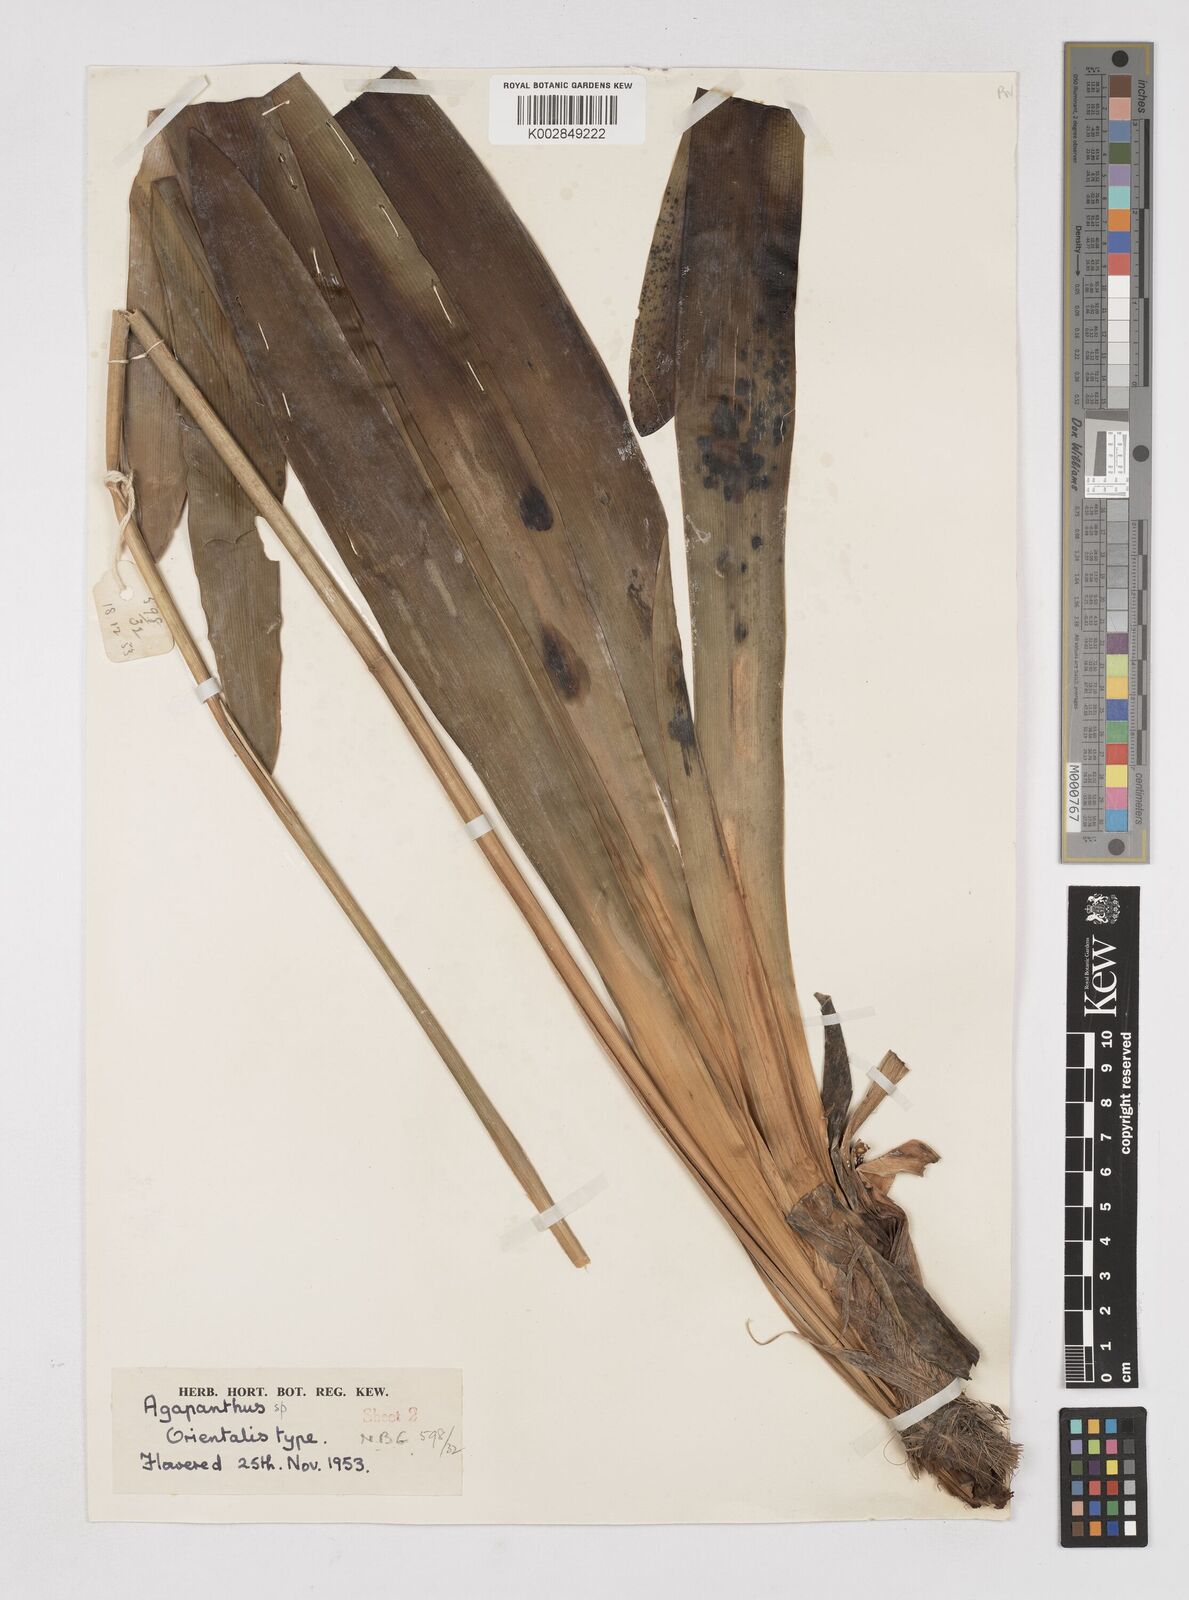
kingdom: Plantae
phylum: Tracheophyta
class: Liliopsida
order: Asparagales
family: Amaryllidaceae
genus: Agapanthus
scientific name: Agapanthus praecox
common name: African-lily
